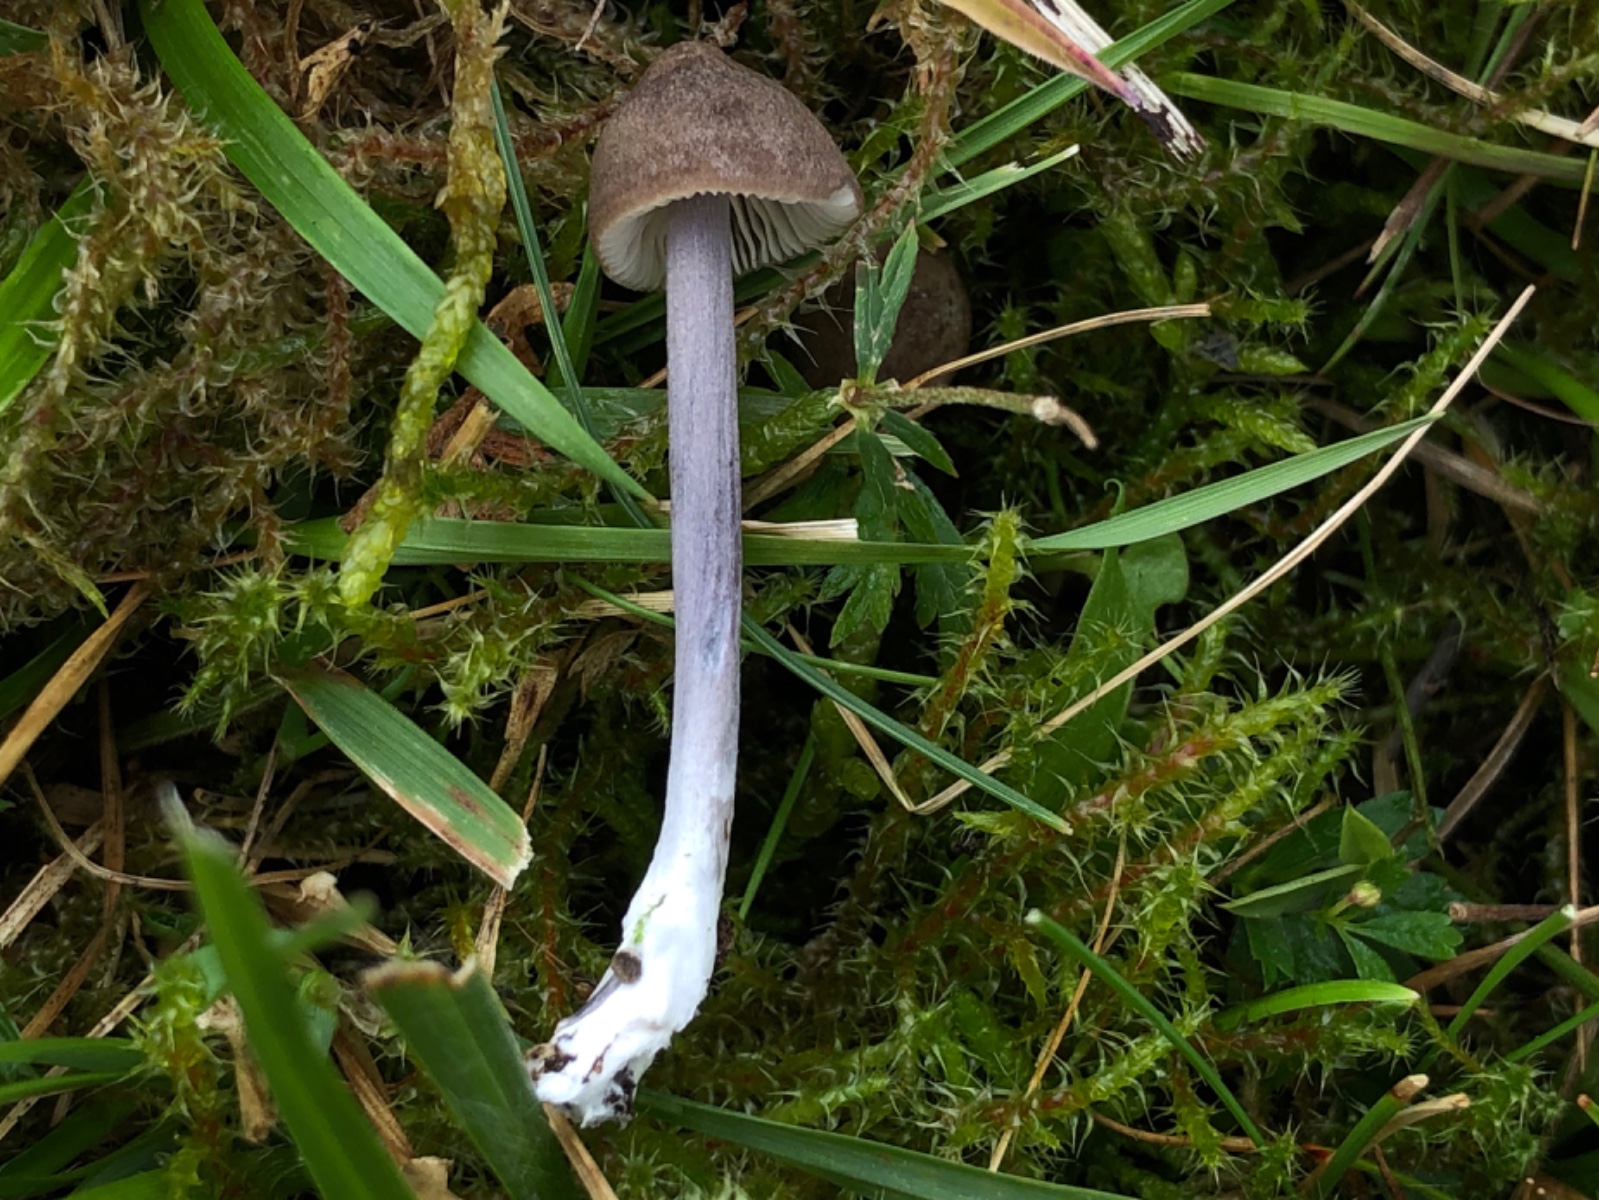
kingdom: Fungi
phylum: Basidiomycota
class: Agaricomycetes
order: Agaricales
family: Entolomataceae
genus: Entoloma
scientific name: Entoloma griseocyaneum
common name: gråblå rødblad
